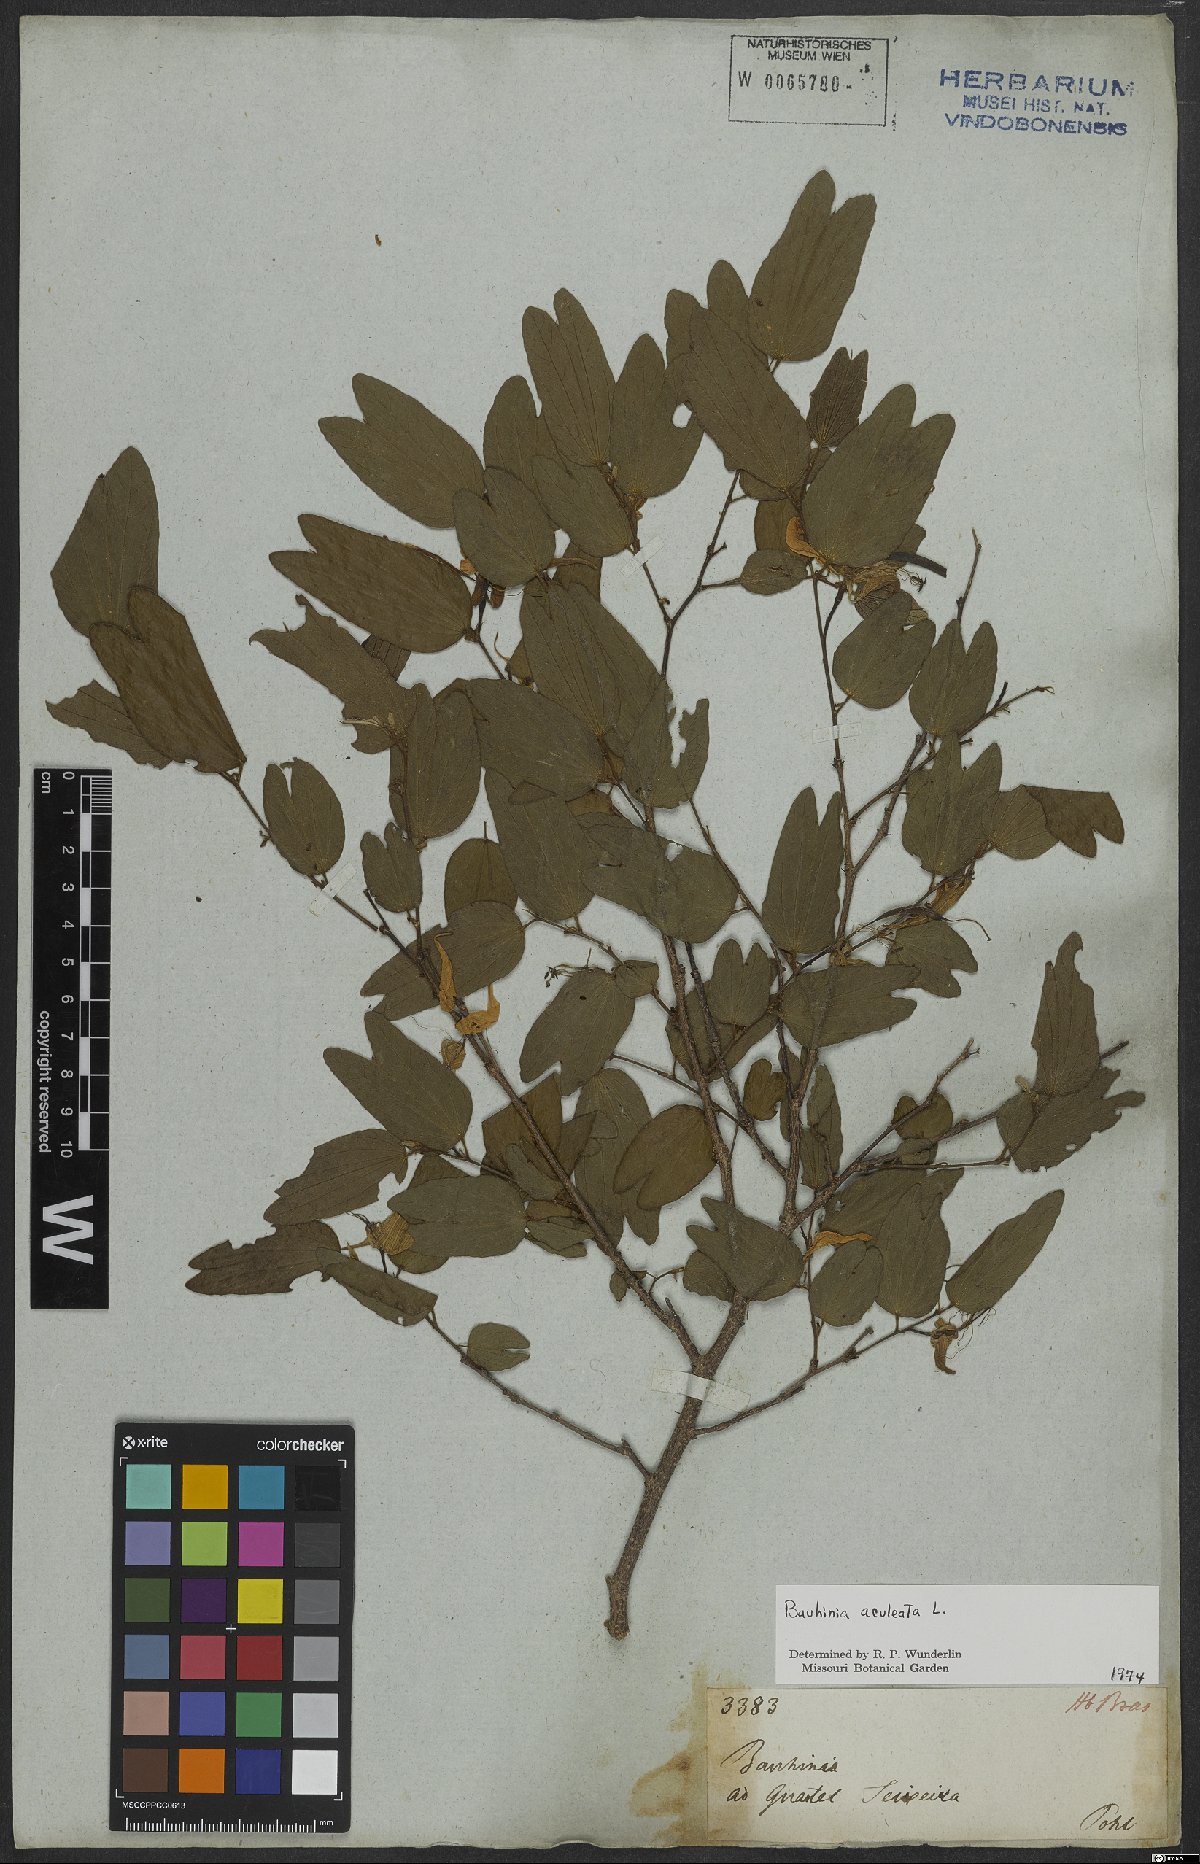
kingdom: Plantae
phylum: Tracheophyta
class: Magnoliopsida
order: Fabales
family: Fabaceae
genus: Bauhinia
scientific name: Bauhinia aculeata
